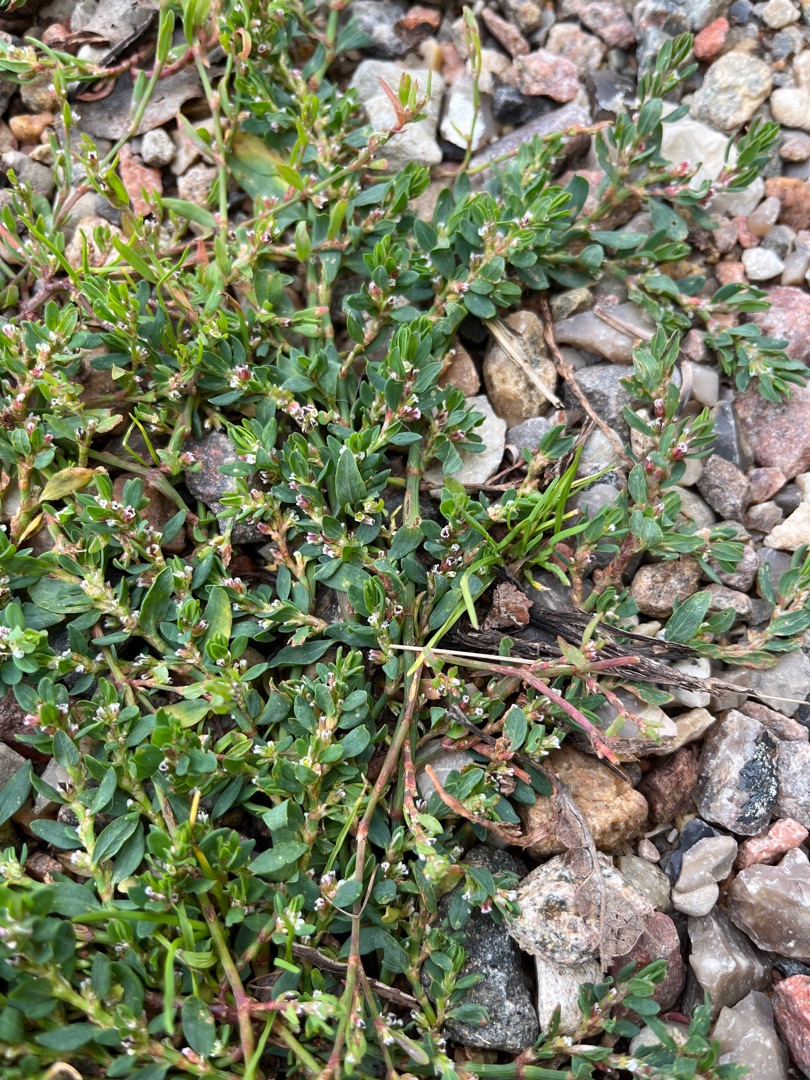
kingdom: Plantae
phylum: Tracheophyta
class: Magnoliopsida
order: Caryophyllales
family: Polygonaceae
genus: Polygonum
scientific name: Polygonum aviculare
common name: Vej-pileurt
